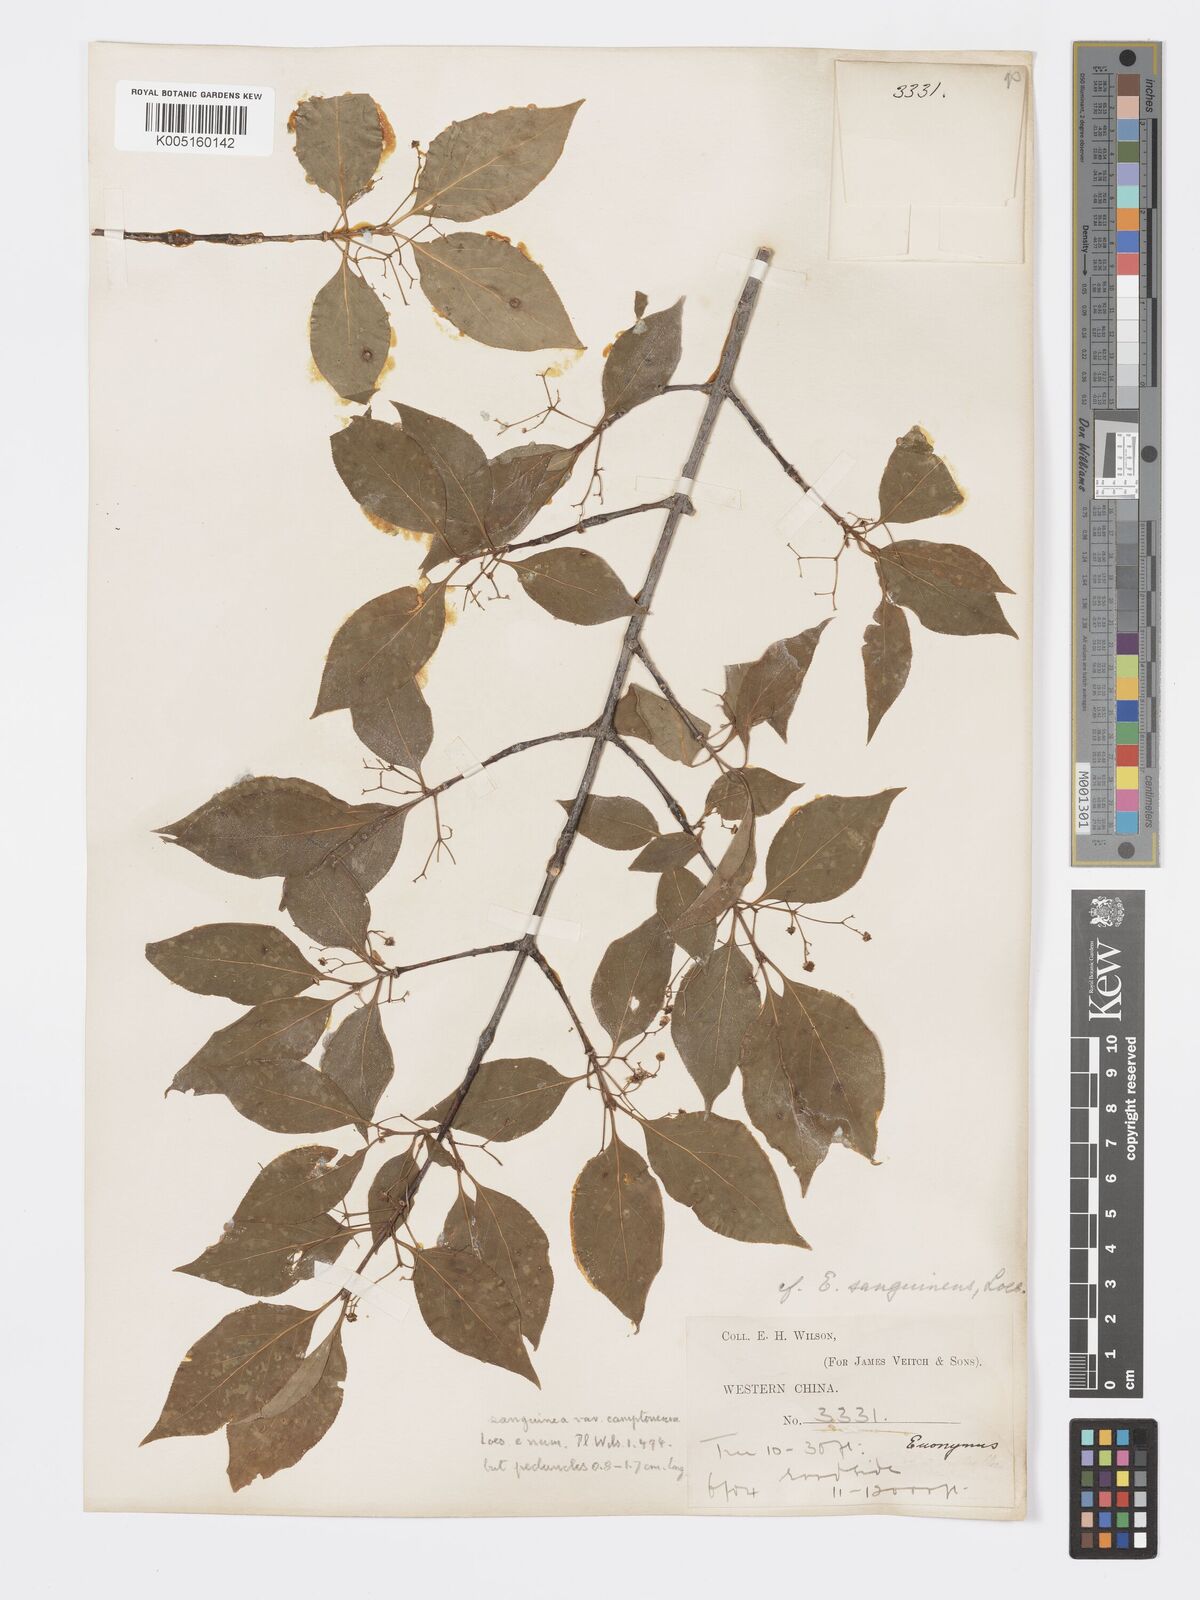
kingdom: Plantae
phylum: Tracheophyta
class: Magnoliopsida
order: Celastrales
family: Celastraceae
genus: Euonymus
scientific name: Euonymus frigidus
